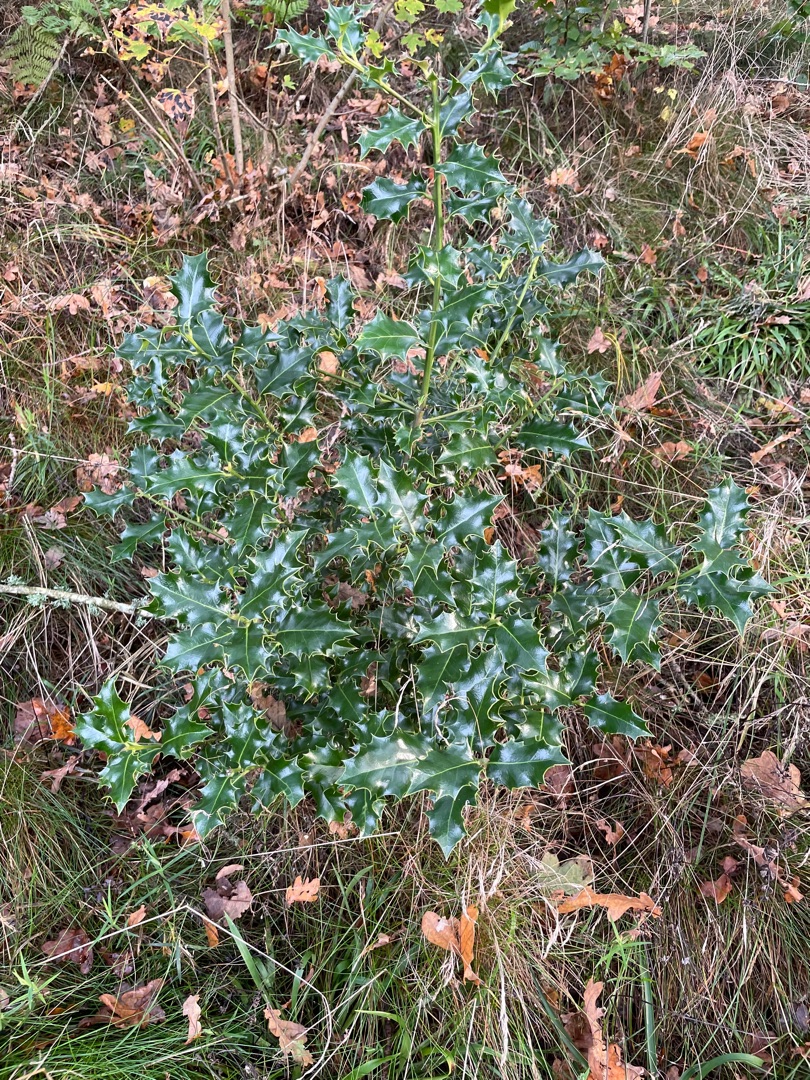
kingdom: Plantae
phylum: Tracheophyta
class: Magnoliopsida
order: Aquifoliales
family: Aquifoliaceae
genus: Ilex
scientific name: Ilex aquifolium
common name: Kristtorn
